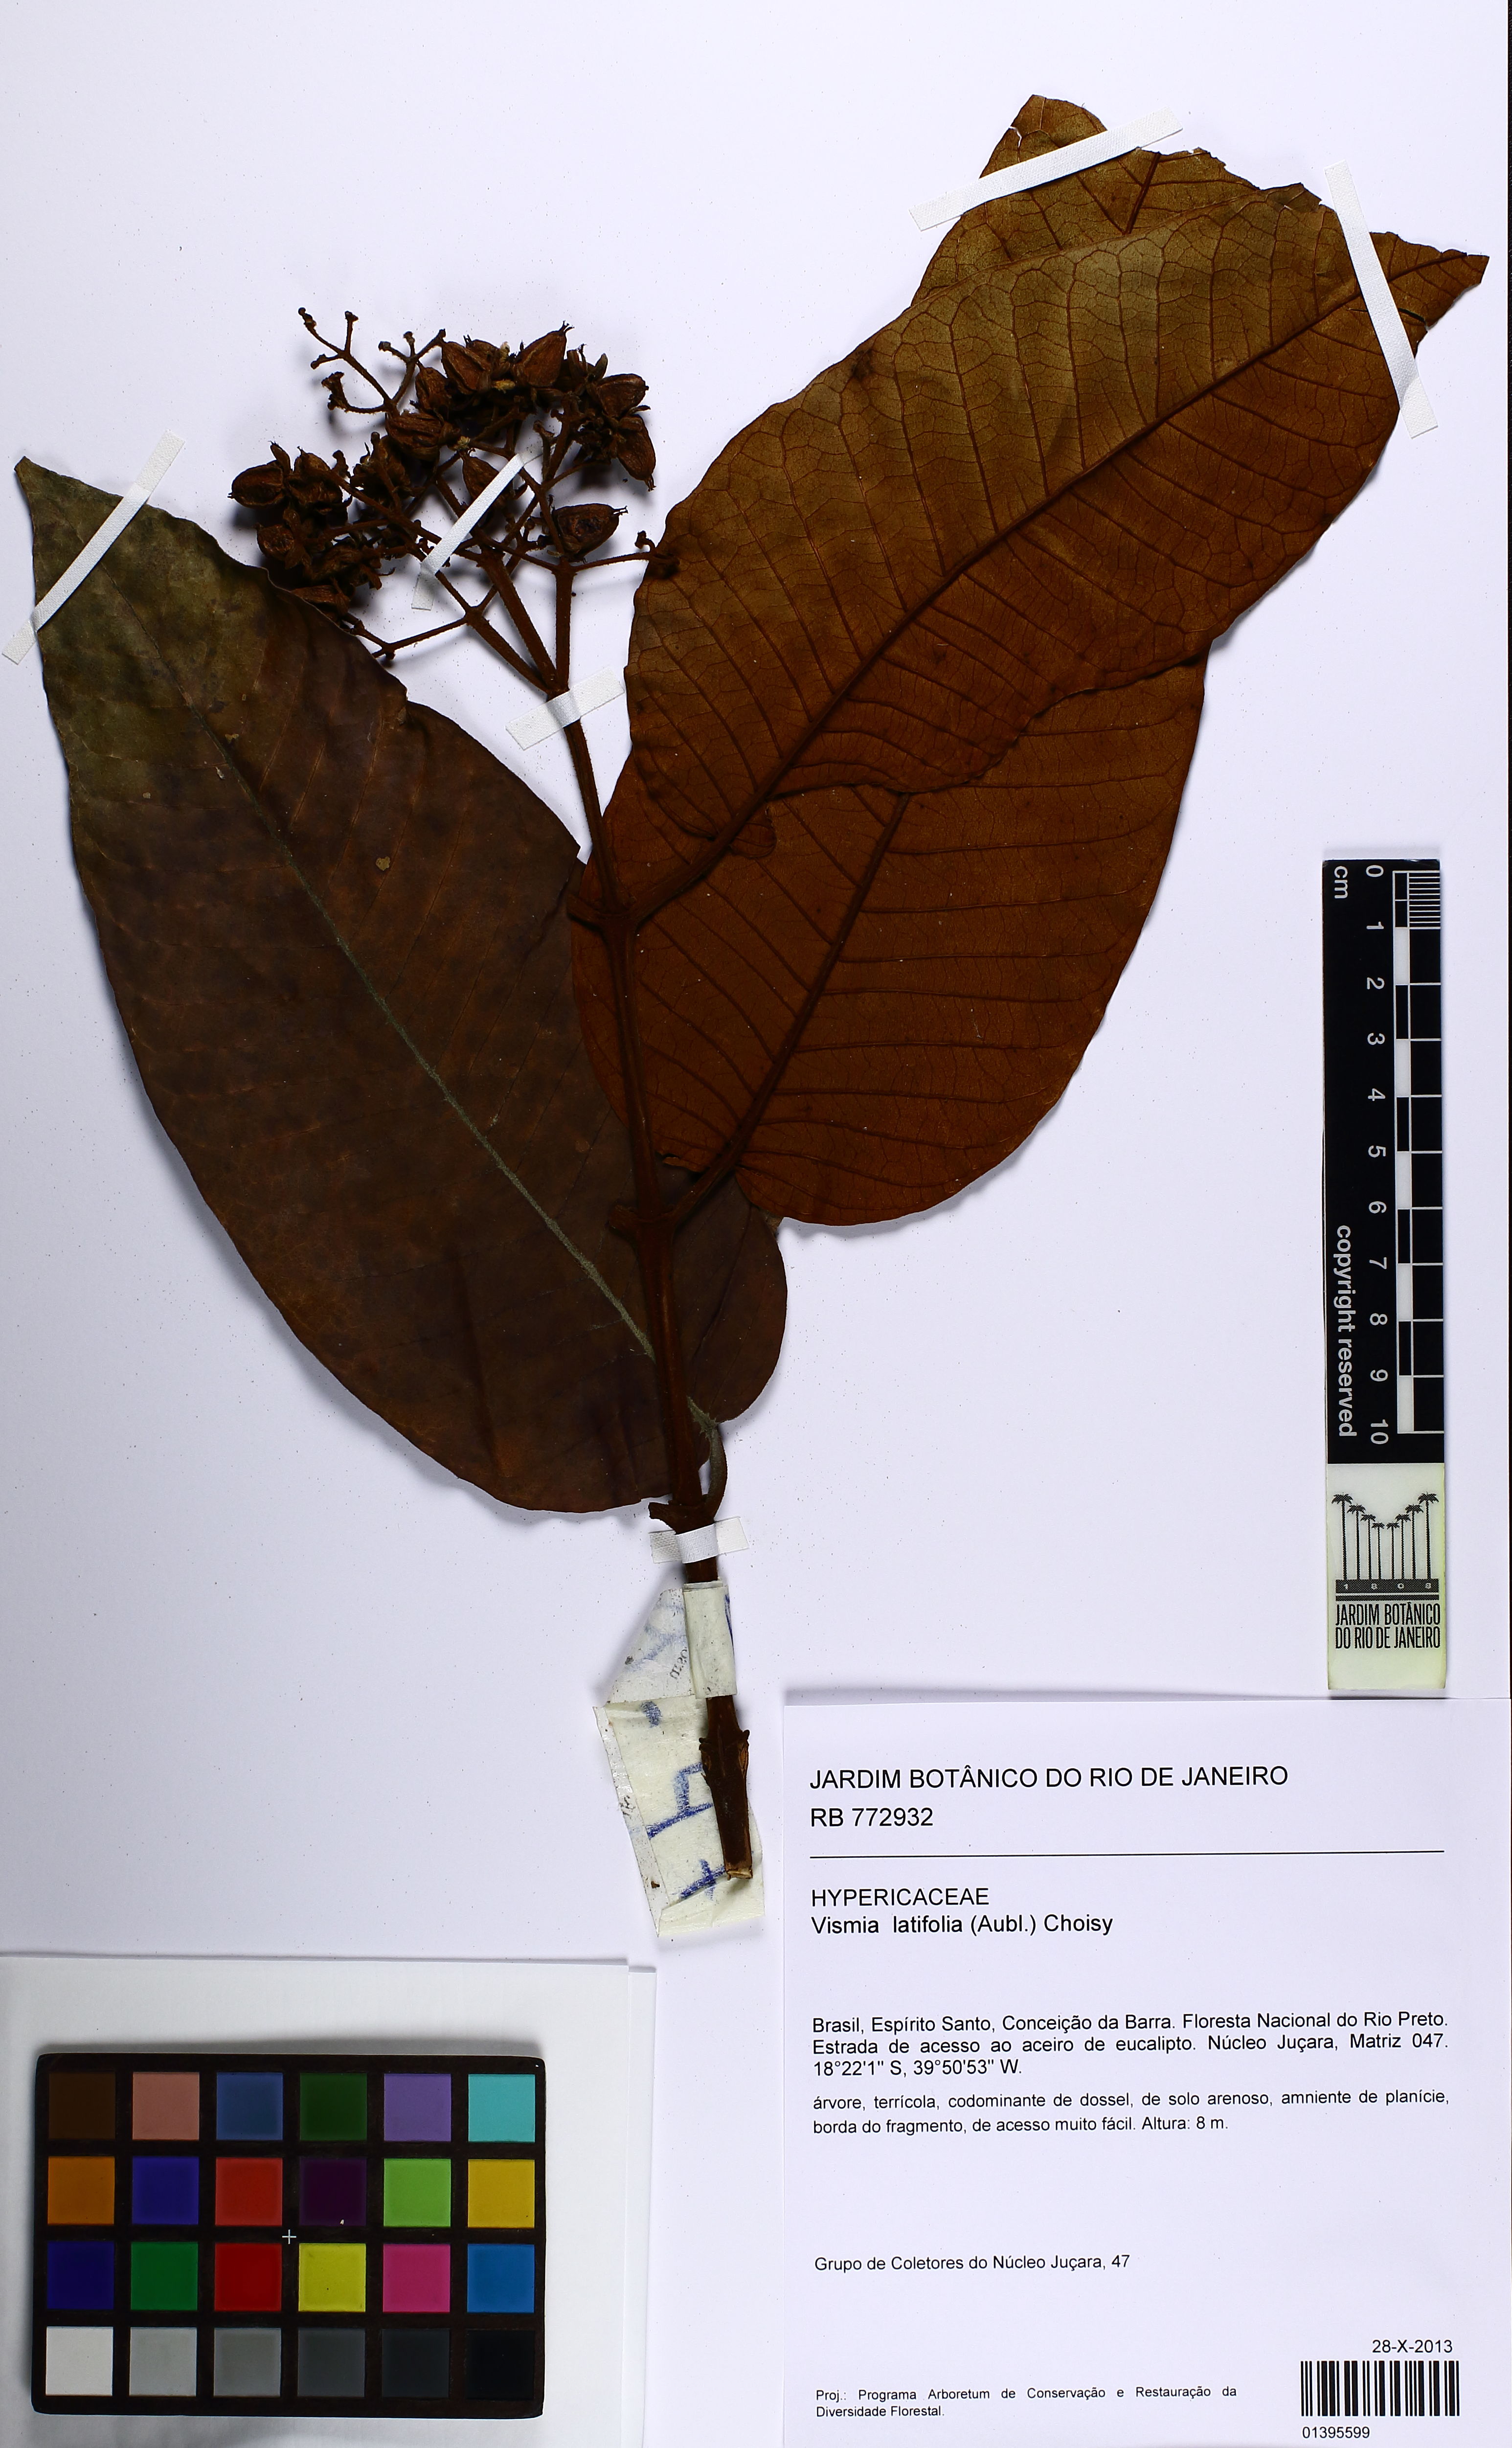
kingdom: Plantae
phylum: Tracheophyta
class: Magnoliopsida
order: Malpighiales
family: Hypericaceae
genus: Vismia
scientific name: Vismia latifolia
